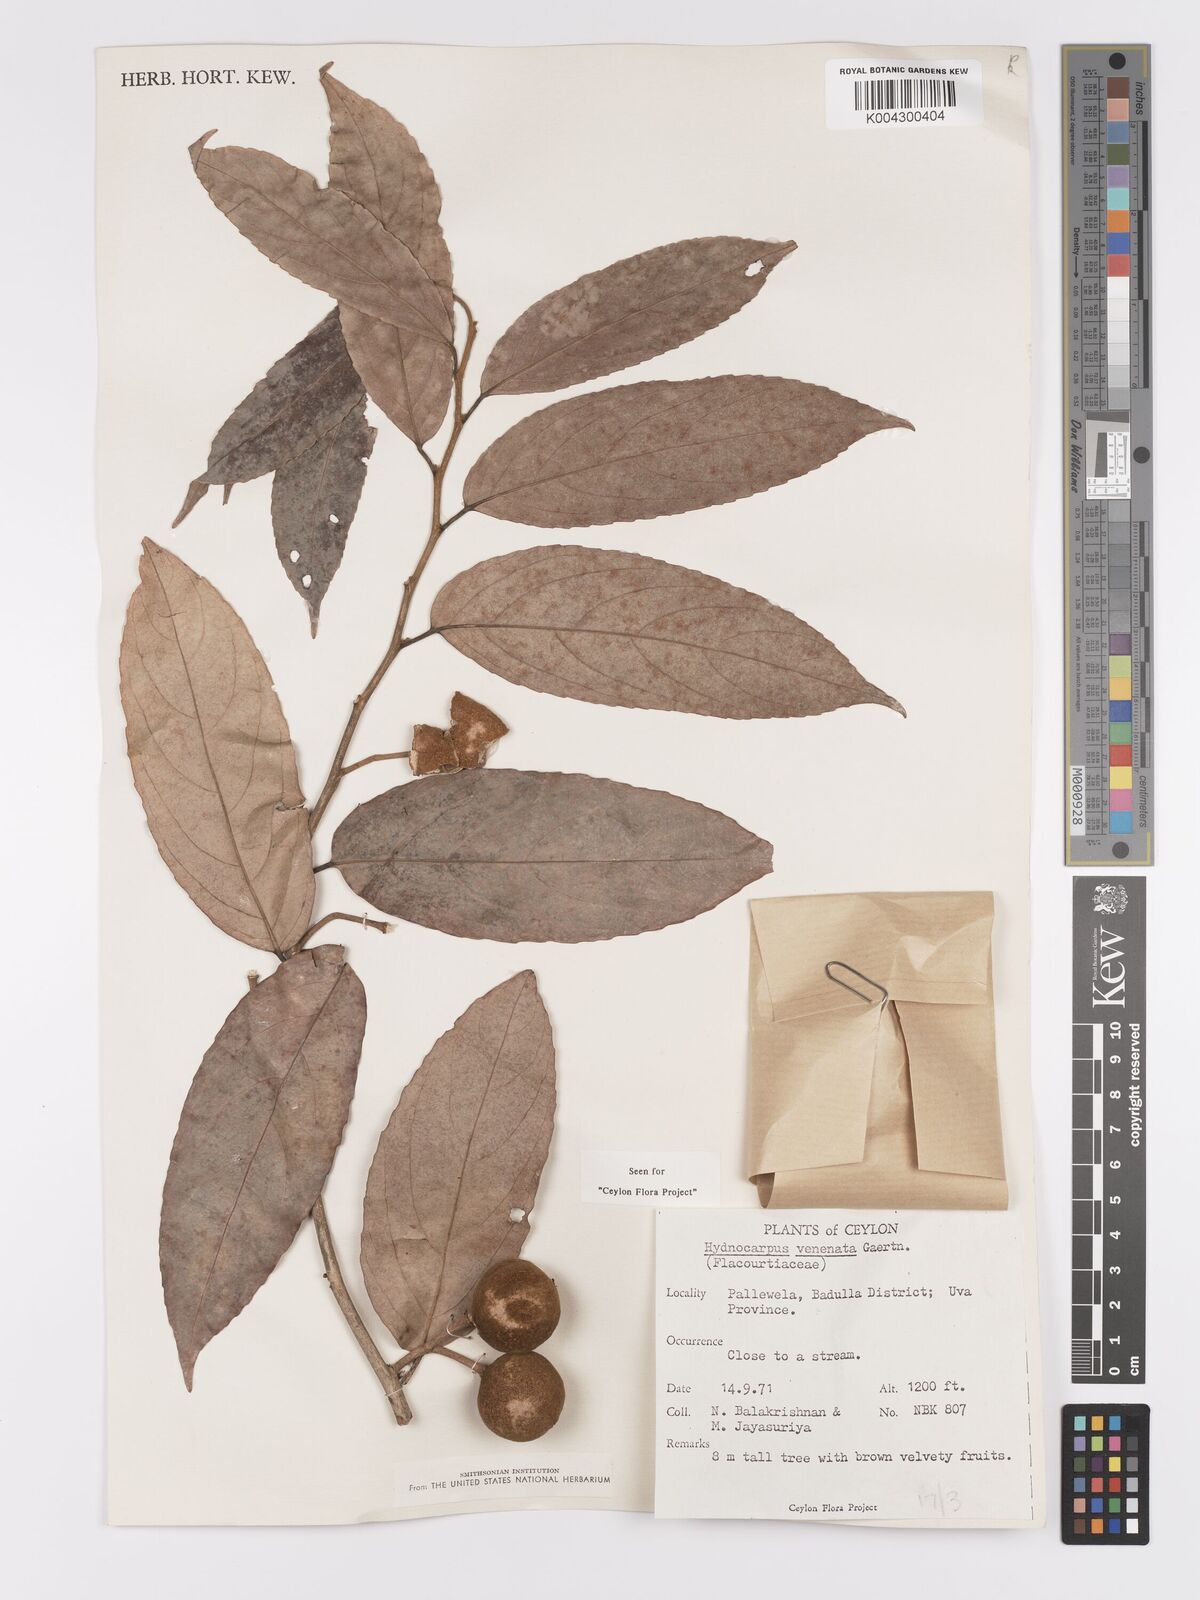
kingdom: Plantae
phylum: Tracheophyta
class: Magnoliopsida
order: Malpighiales
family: Achariaceae
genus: Hydnocarpus
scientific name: Hydnocarpus venenatus
